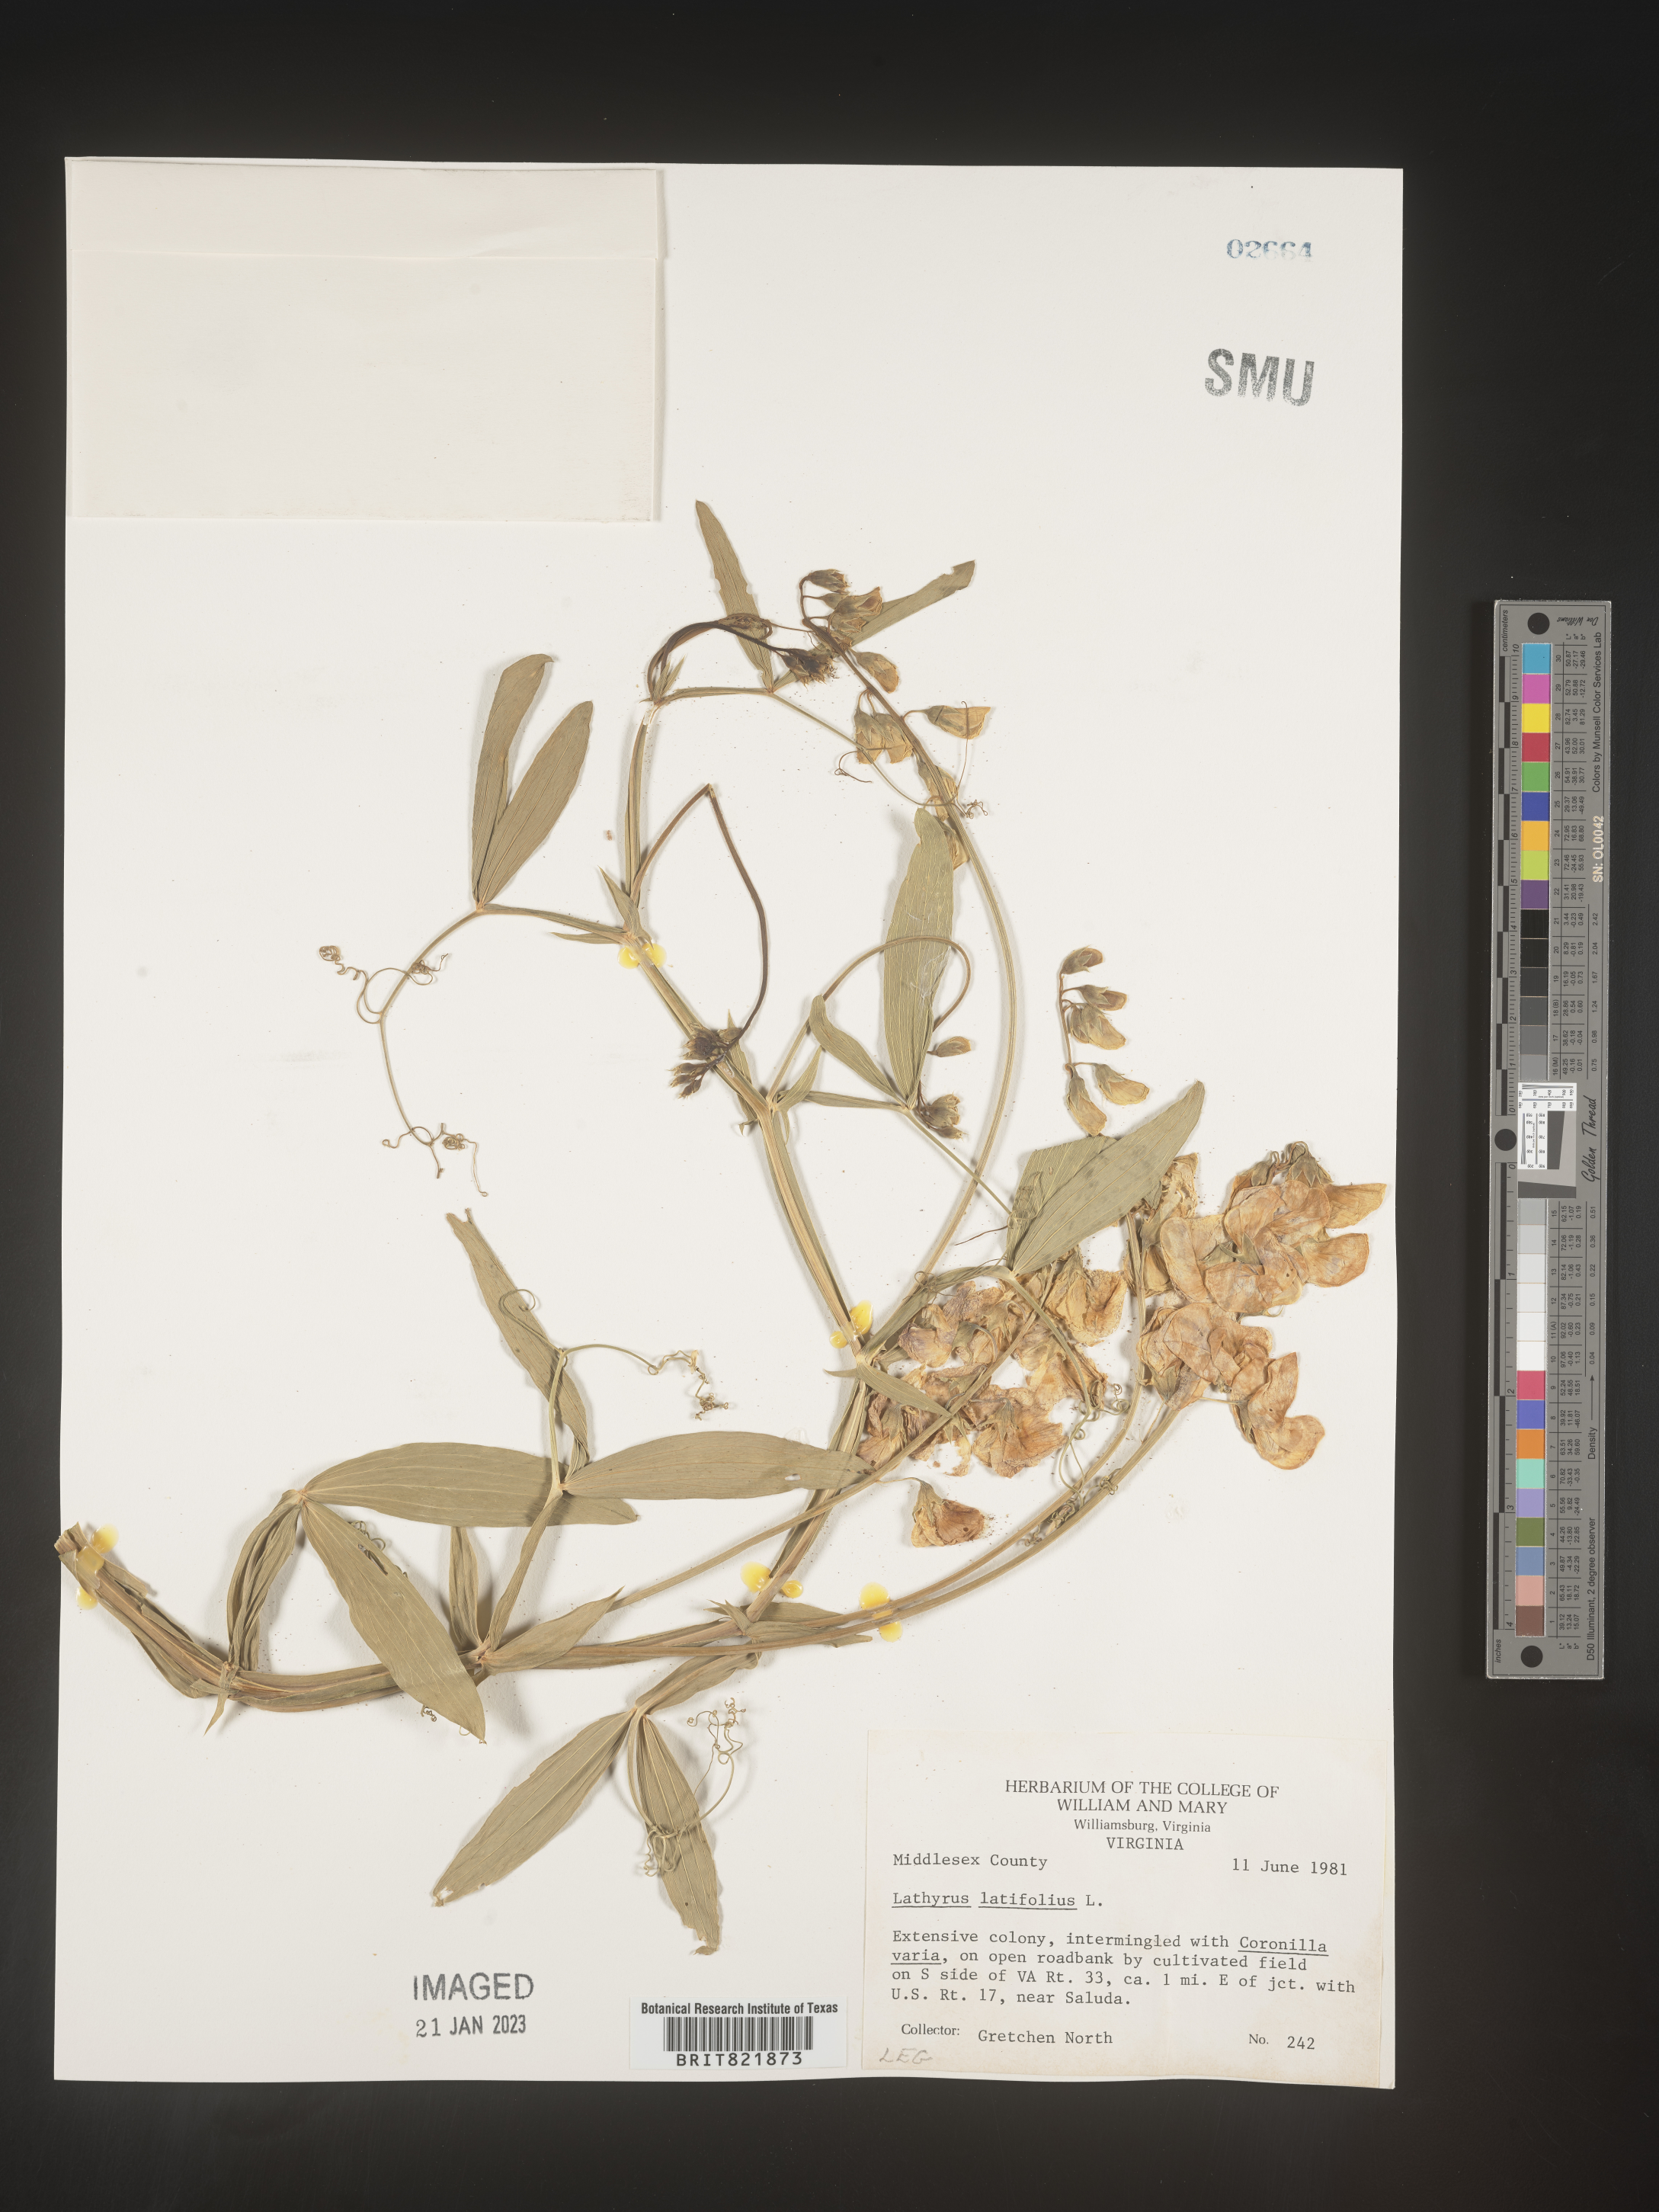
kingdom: Plantae
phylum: Tracheophyta
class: Magnoliopsida
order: Fabales
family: Fabaceae
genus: Lathyrus
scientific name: Lathyrus latifolius
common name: Perennial pea
